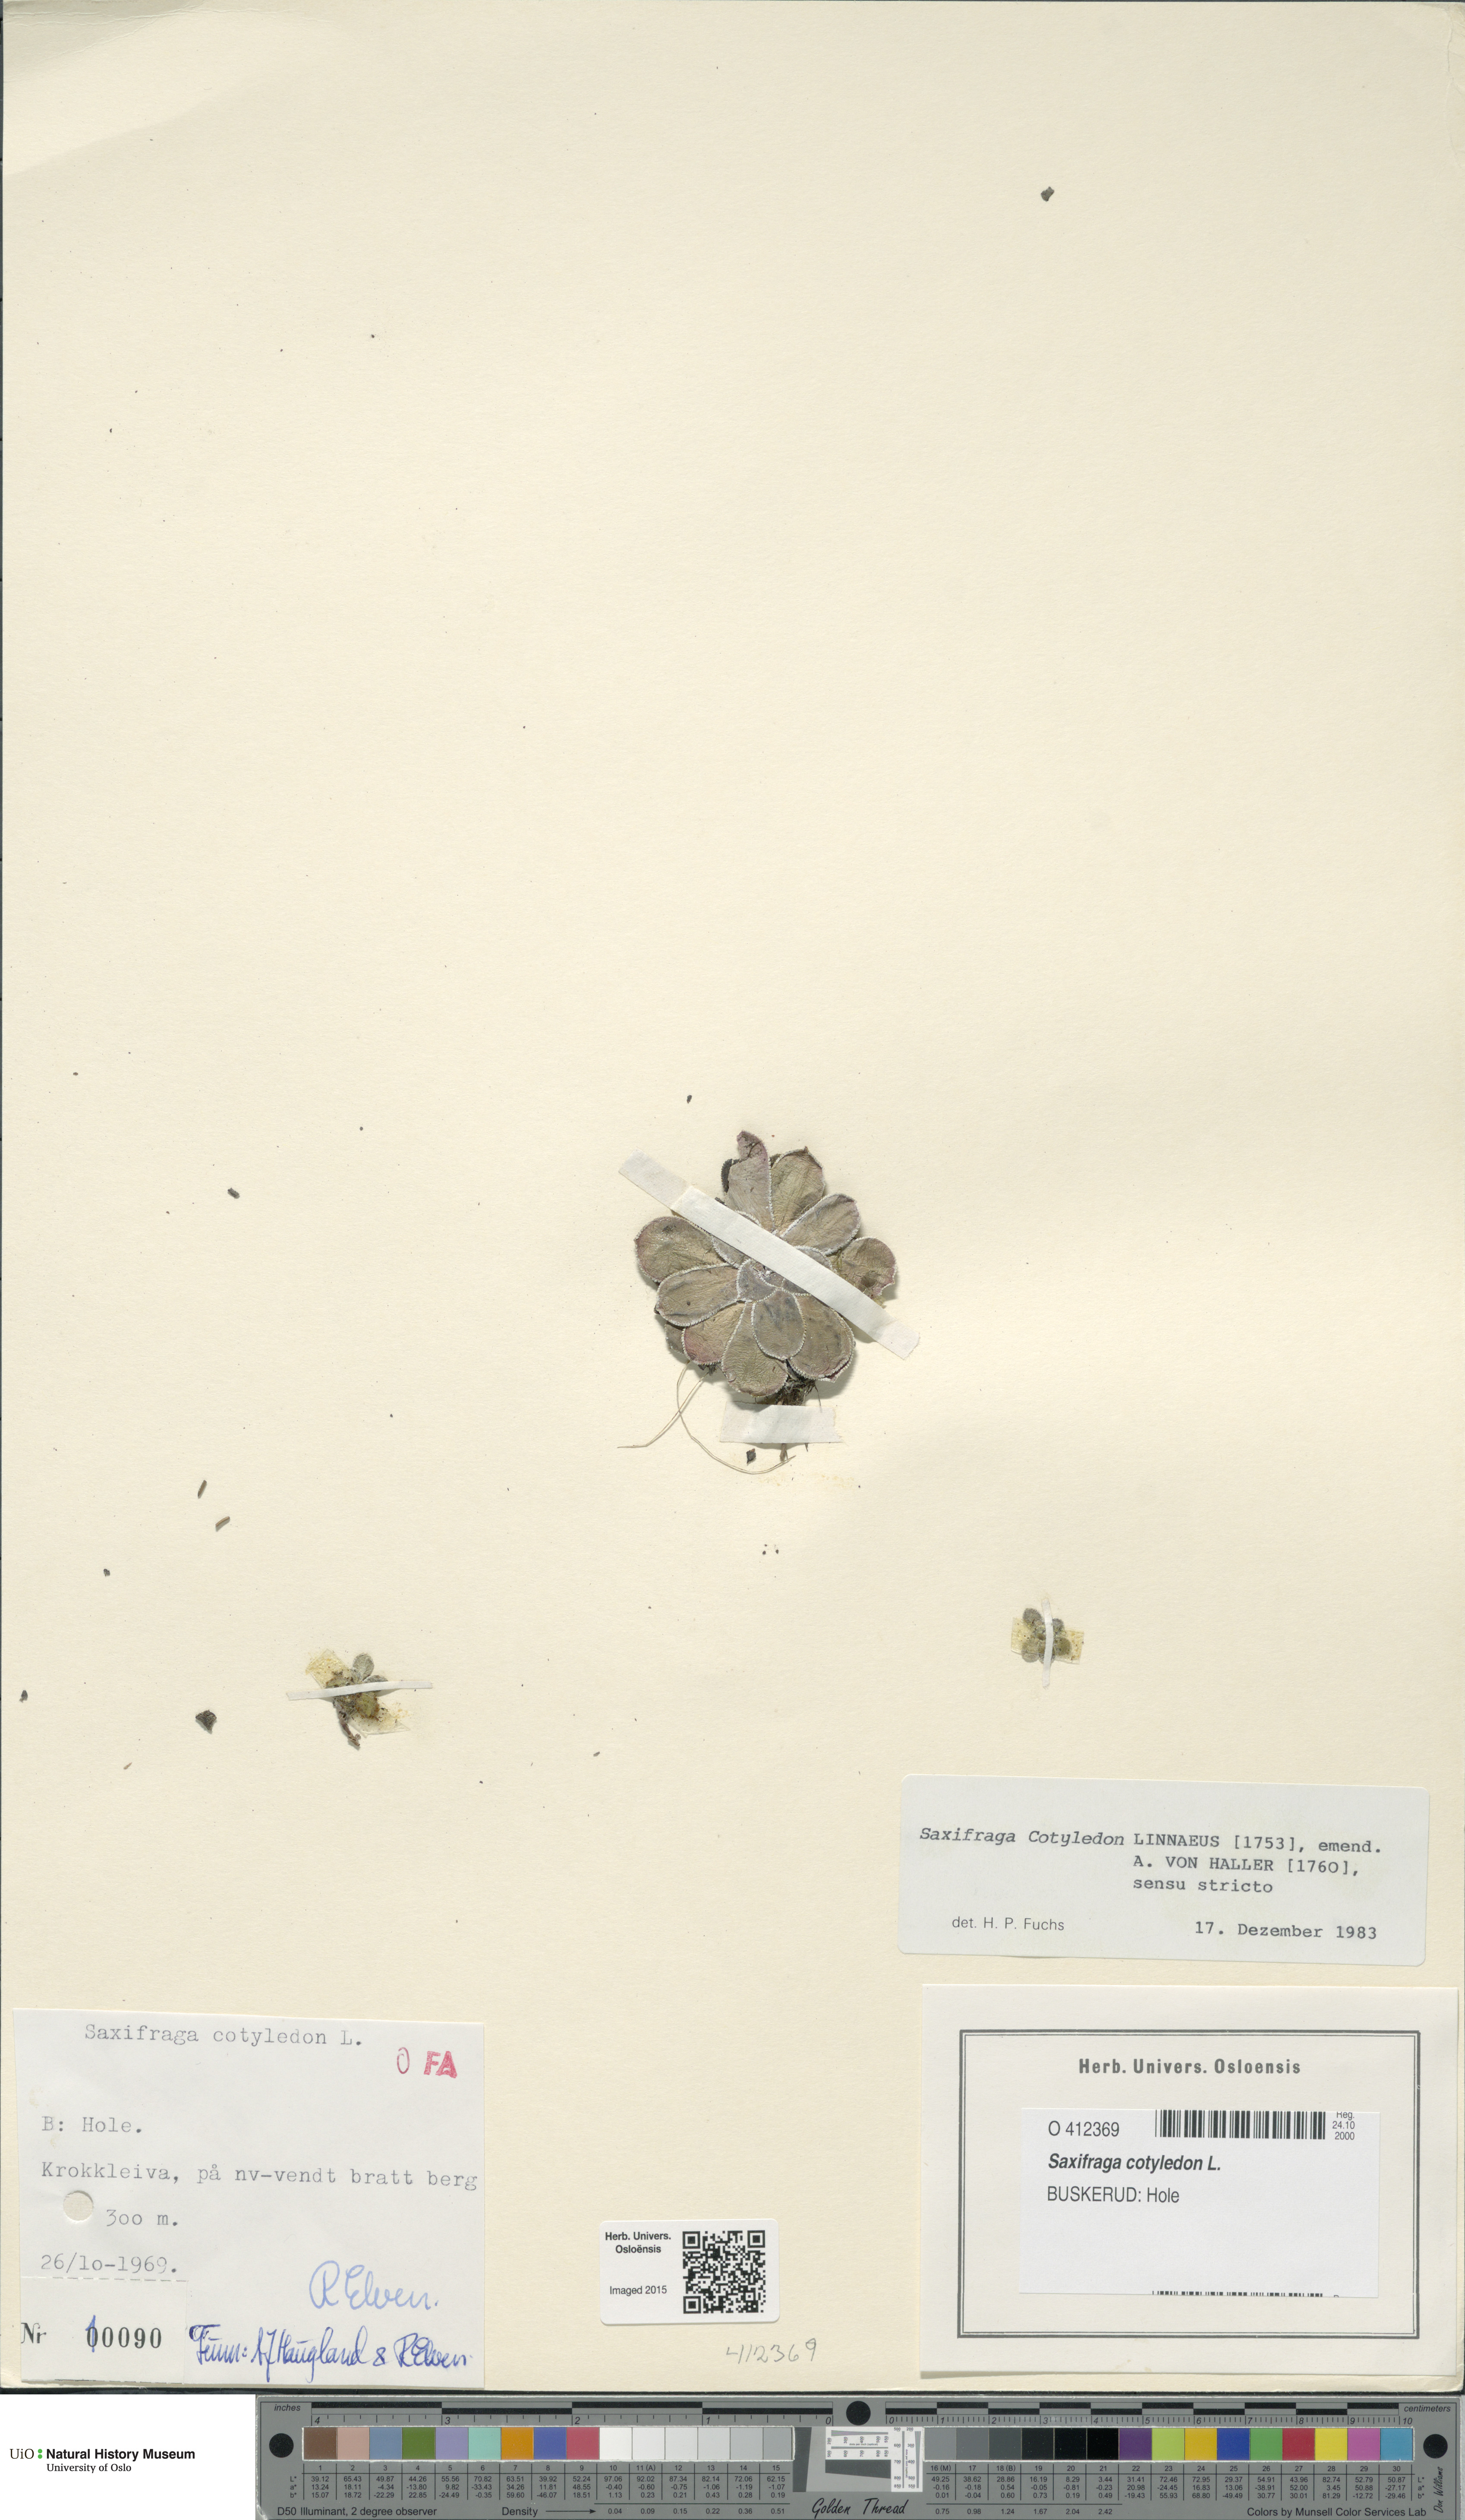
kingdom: Plantae
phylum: Tracheophyta
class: Magnoliopsida
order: Saxifragales
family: Saxifragaceae
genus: Saxifraga
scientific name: Saxifraga cotyledon
